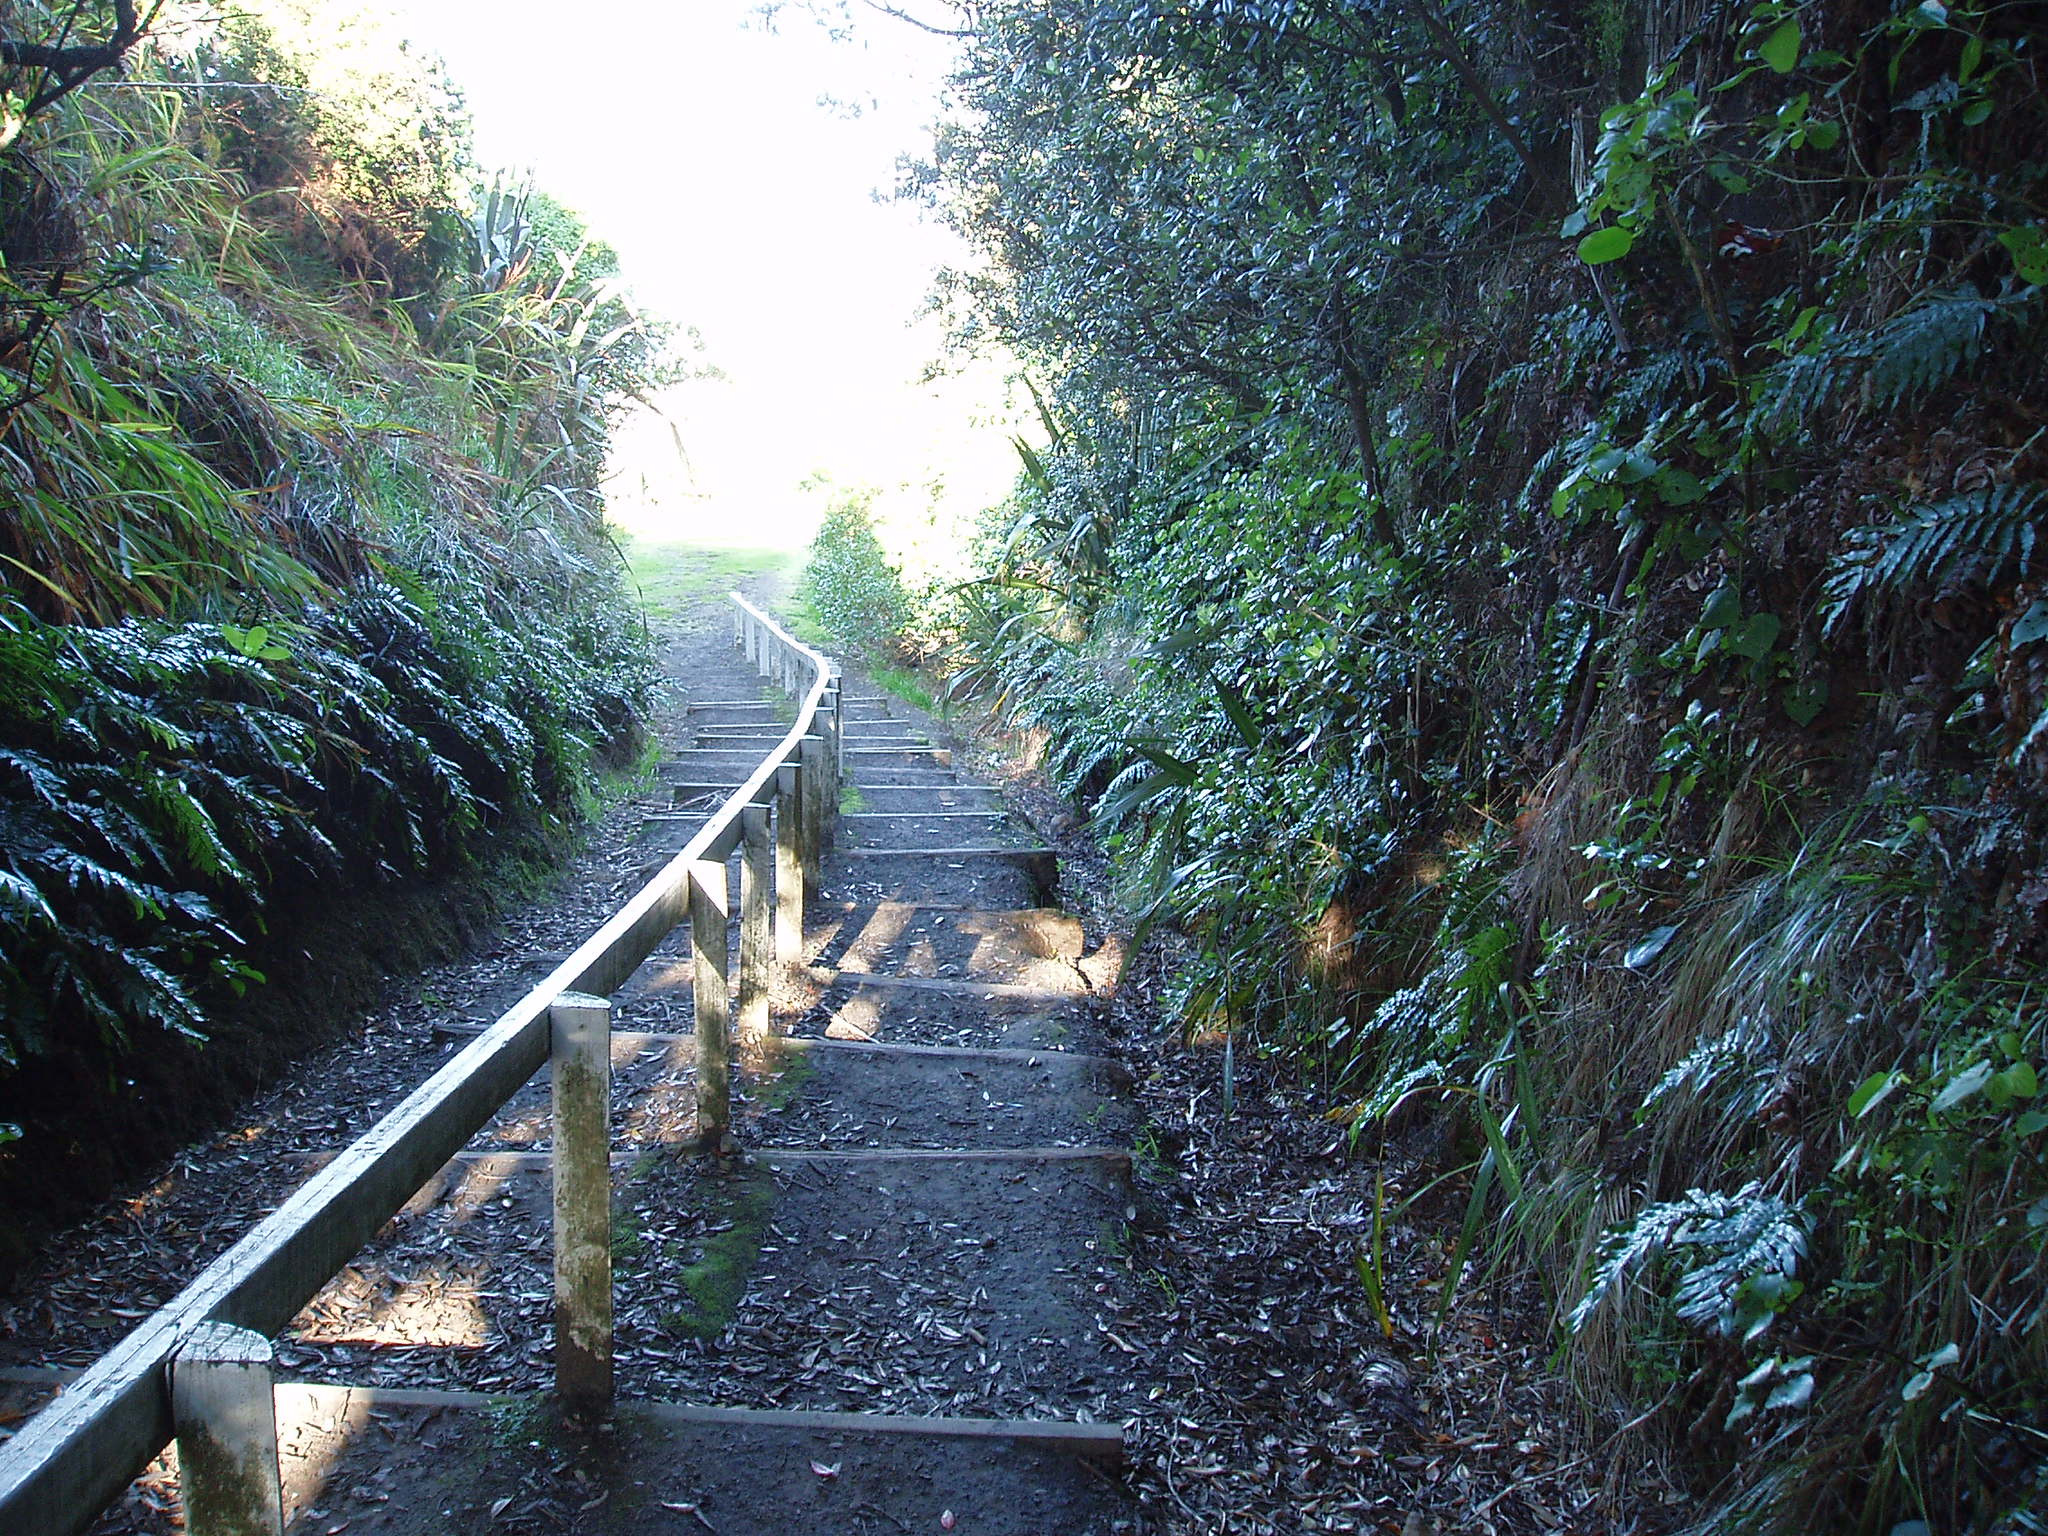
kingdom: Plantae
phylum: Tracheophyta
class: Polypodiopsida
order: Polypodiales
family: Blechnaceae
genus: Parablechnum
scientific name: Parablechnum triangularifolium
